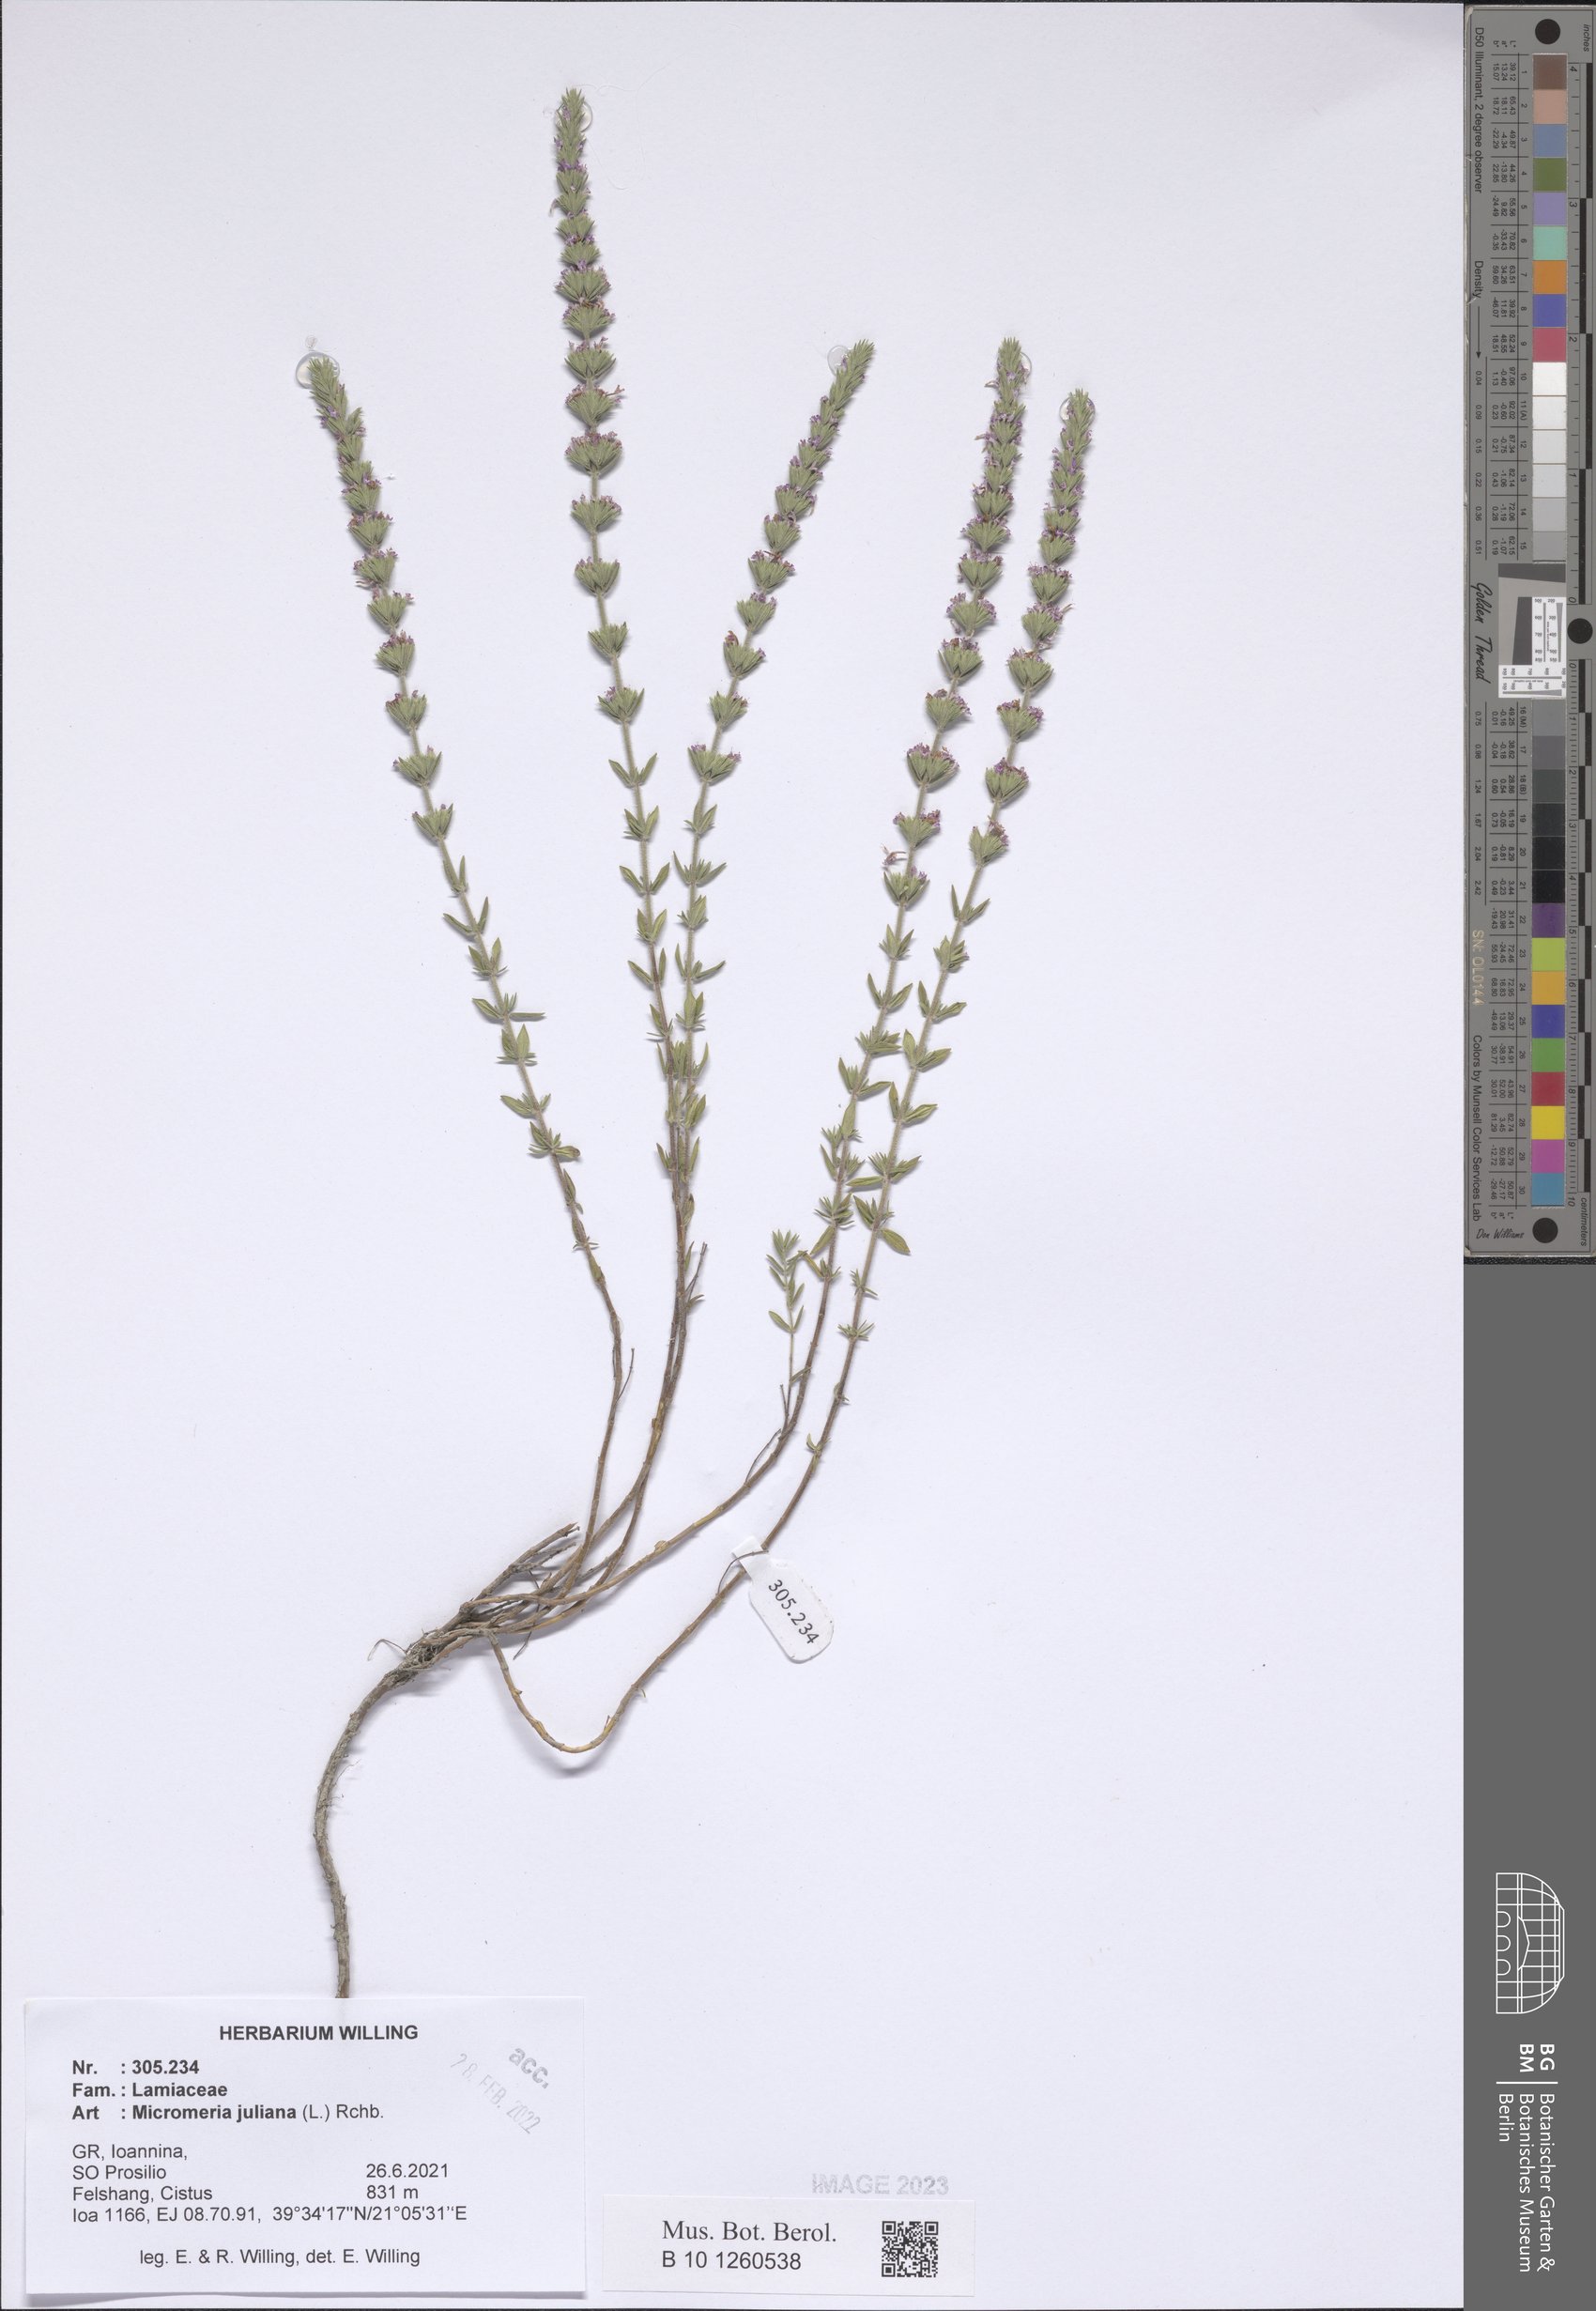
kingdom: Plantae
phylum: Tracheophyta
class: Magnoliopsida
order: Lamiales
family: Lamiaceae
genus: Micromeria
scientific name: Micromeria juliana
